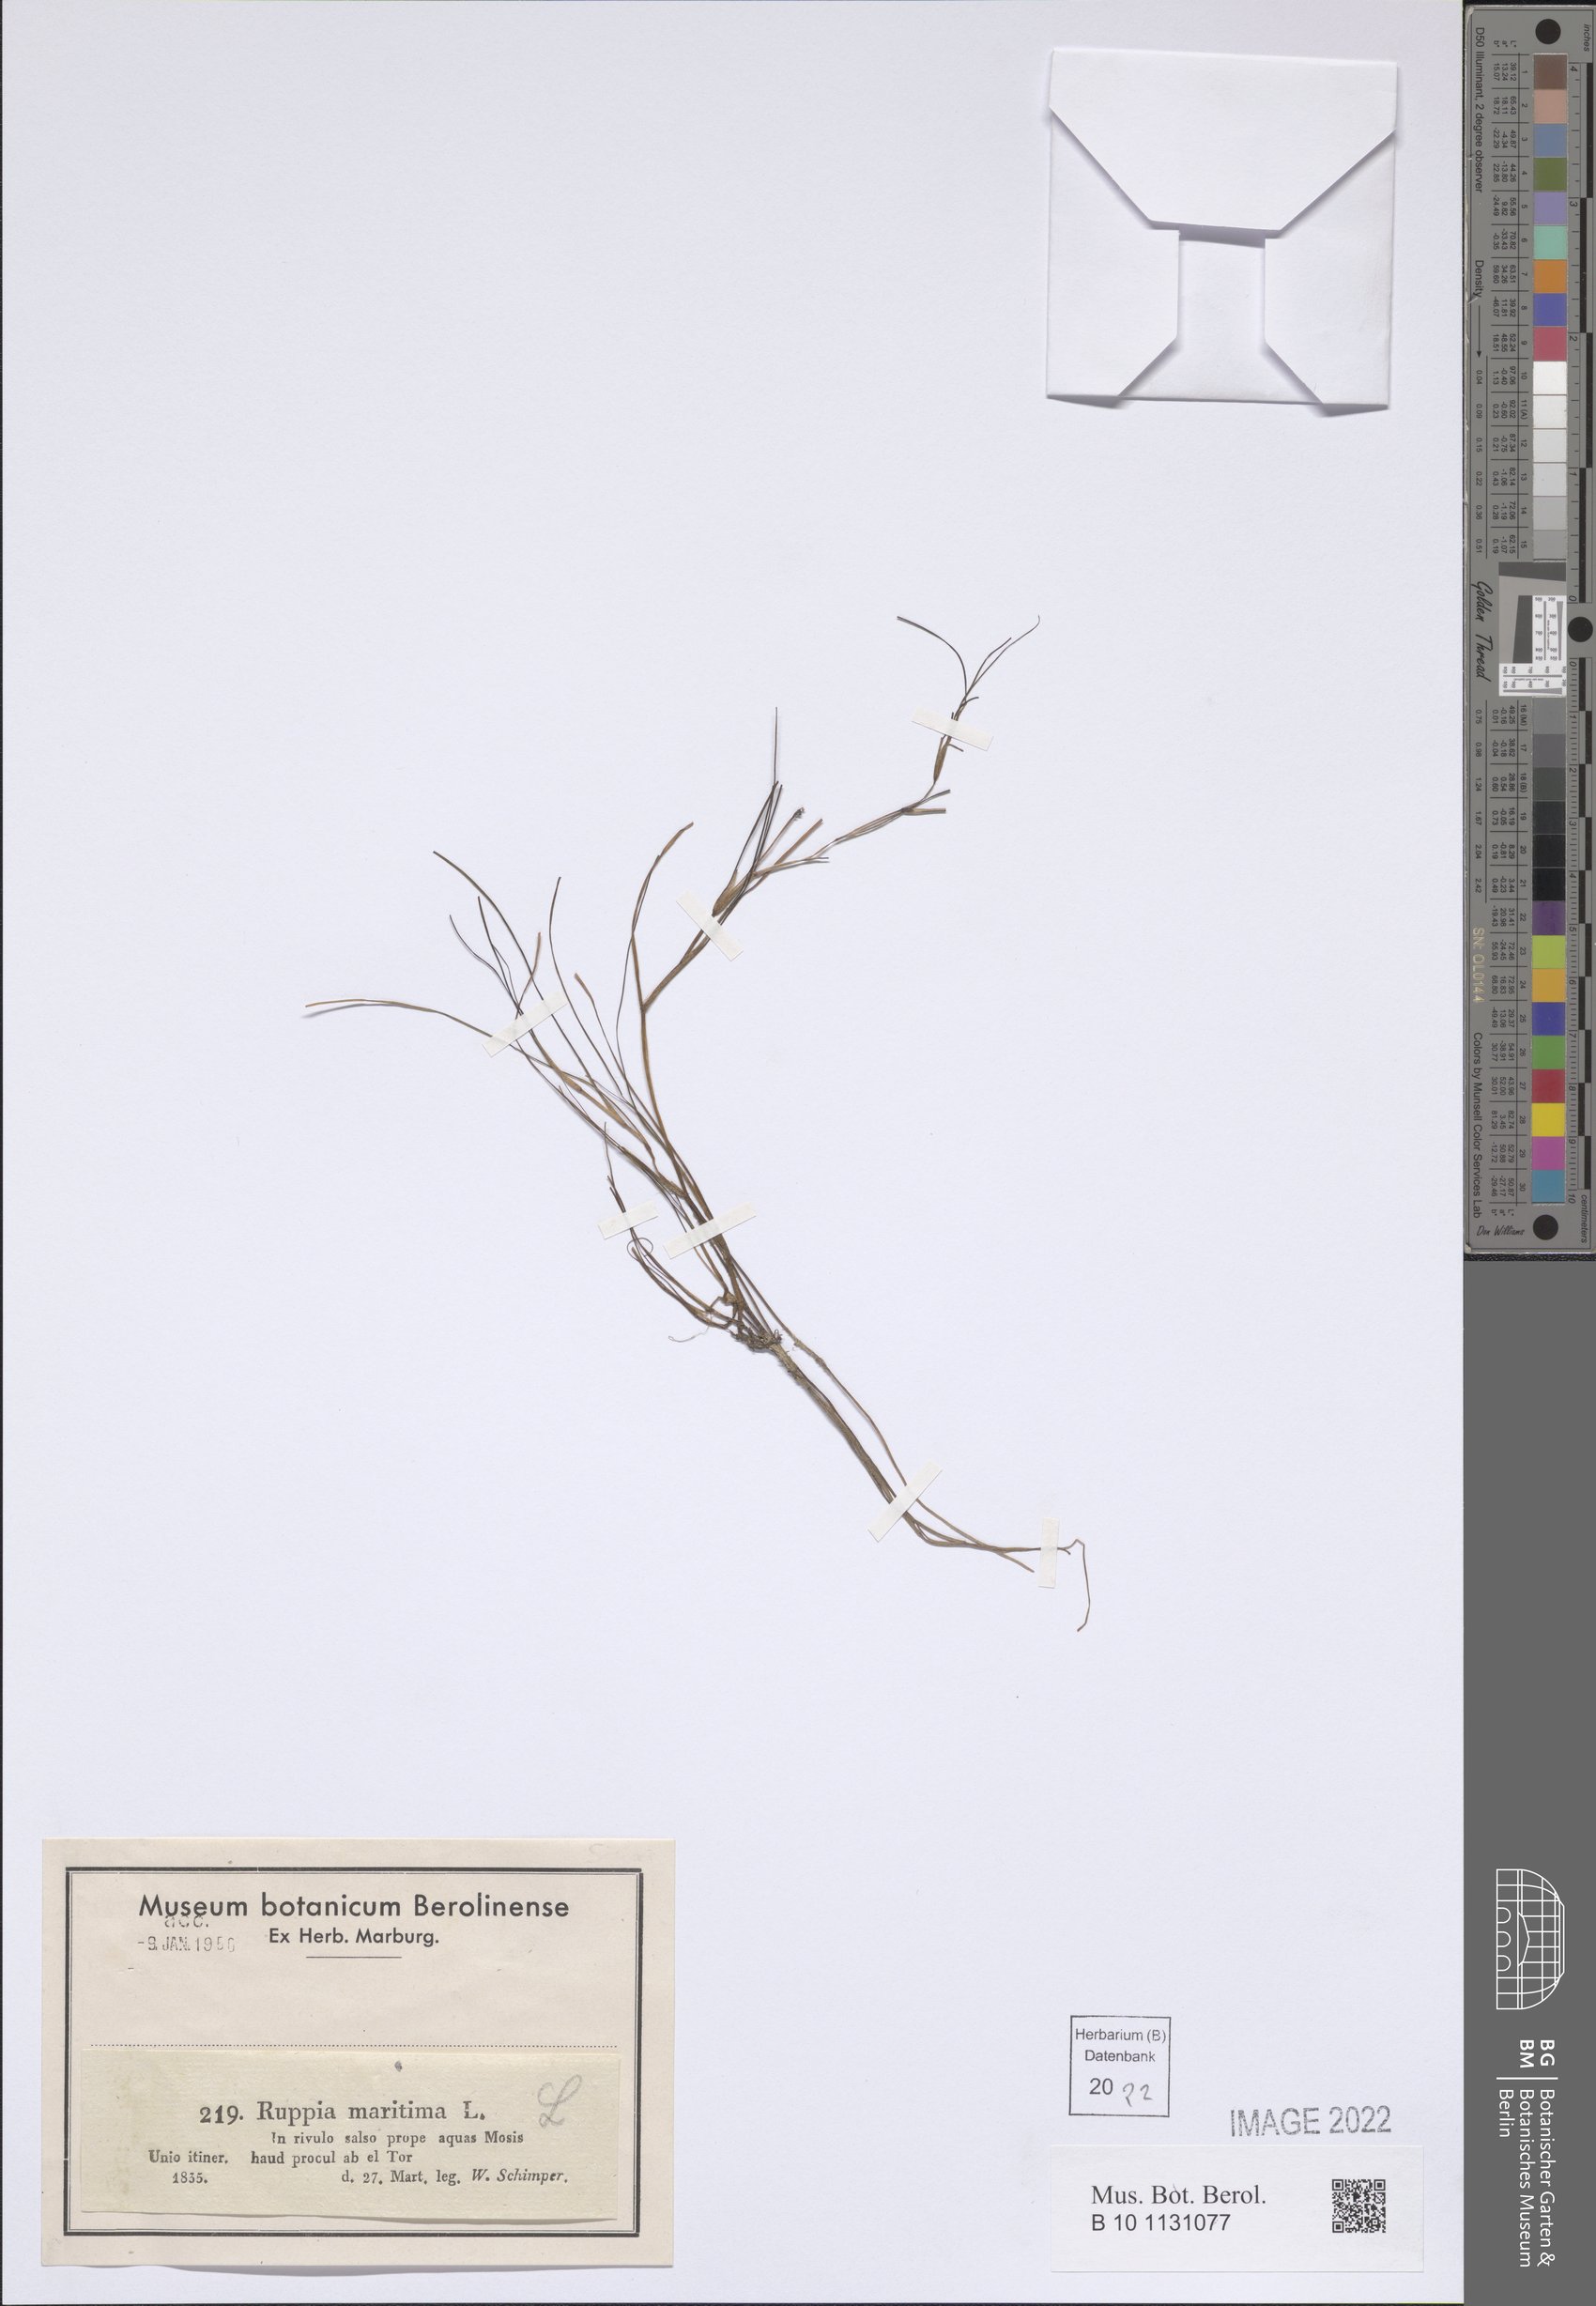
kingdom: Plantae
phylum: Tracheophyta
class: Liliopsida
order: Alismatales
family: Ruppiaceae
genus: Ruppia
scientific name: Ruppia maritima
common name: Beaked tasselweed
